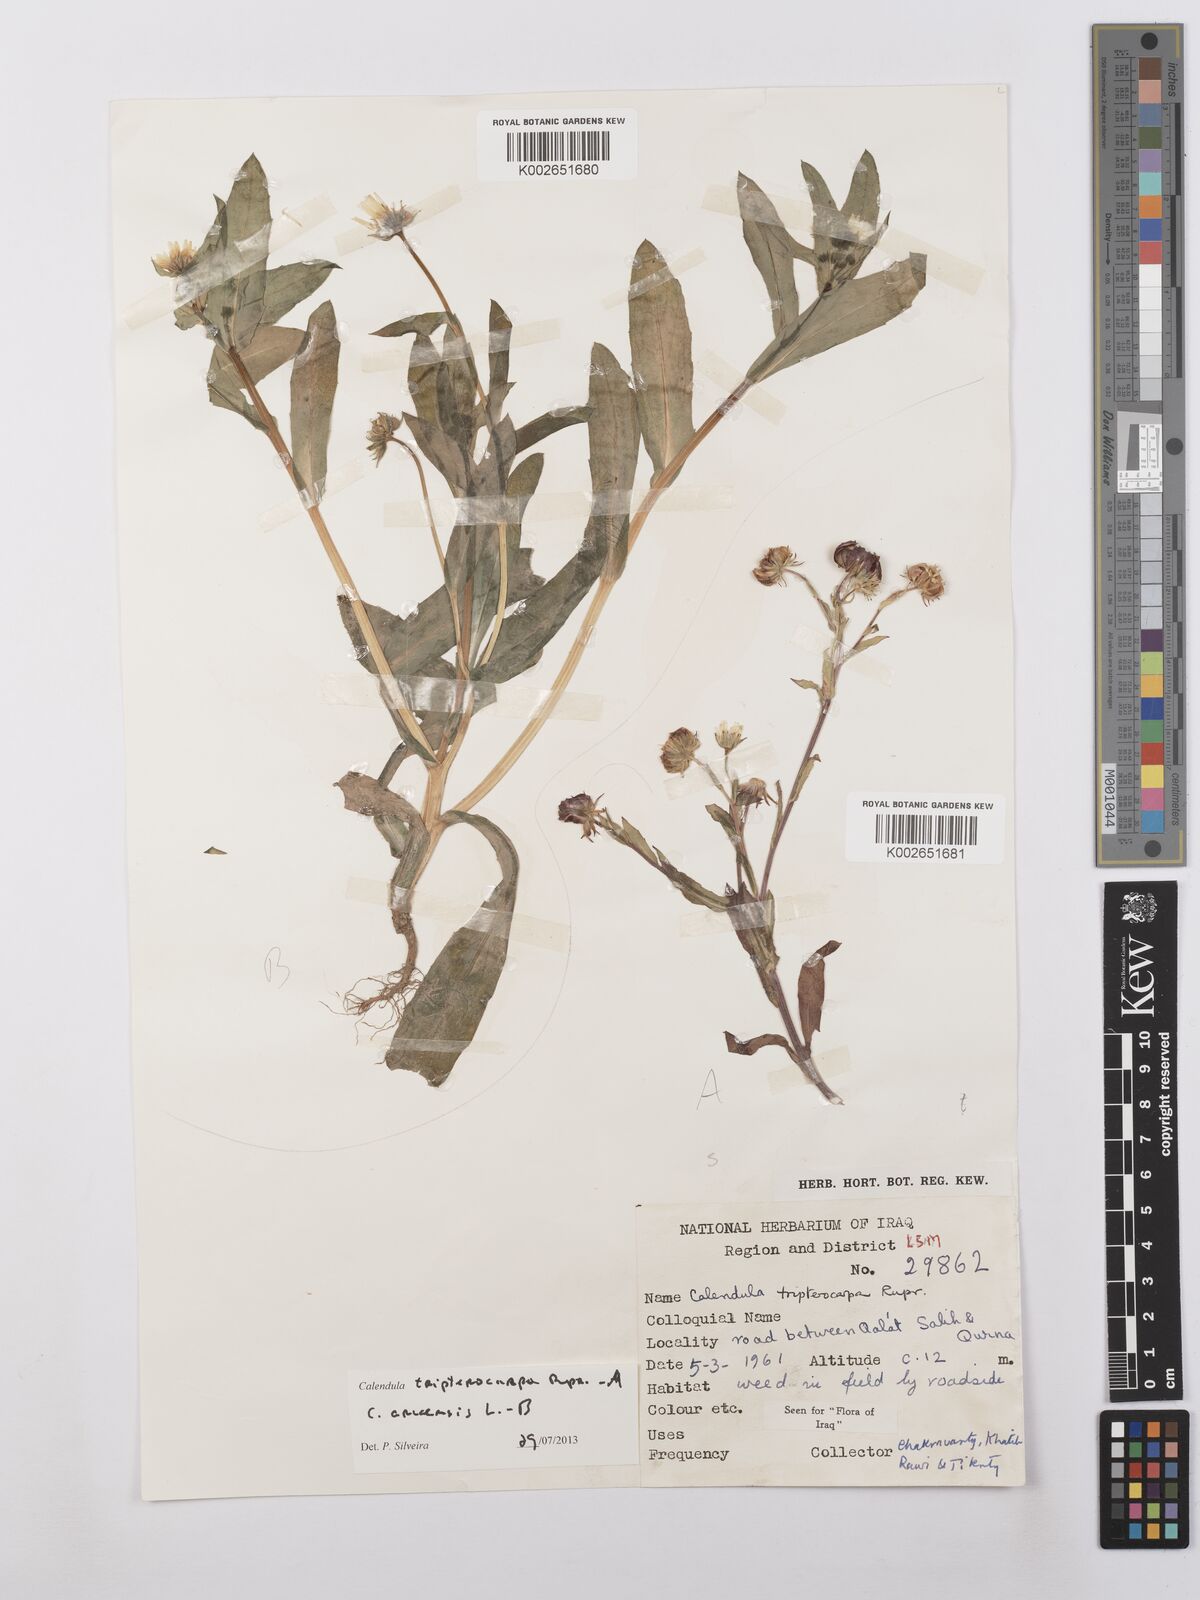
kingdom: Plantae
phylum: Tracheophyta
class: Magnoliopsida
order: Asterales
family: Asteraceae
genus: Calendula
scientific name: Calendula tripterocarpa
